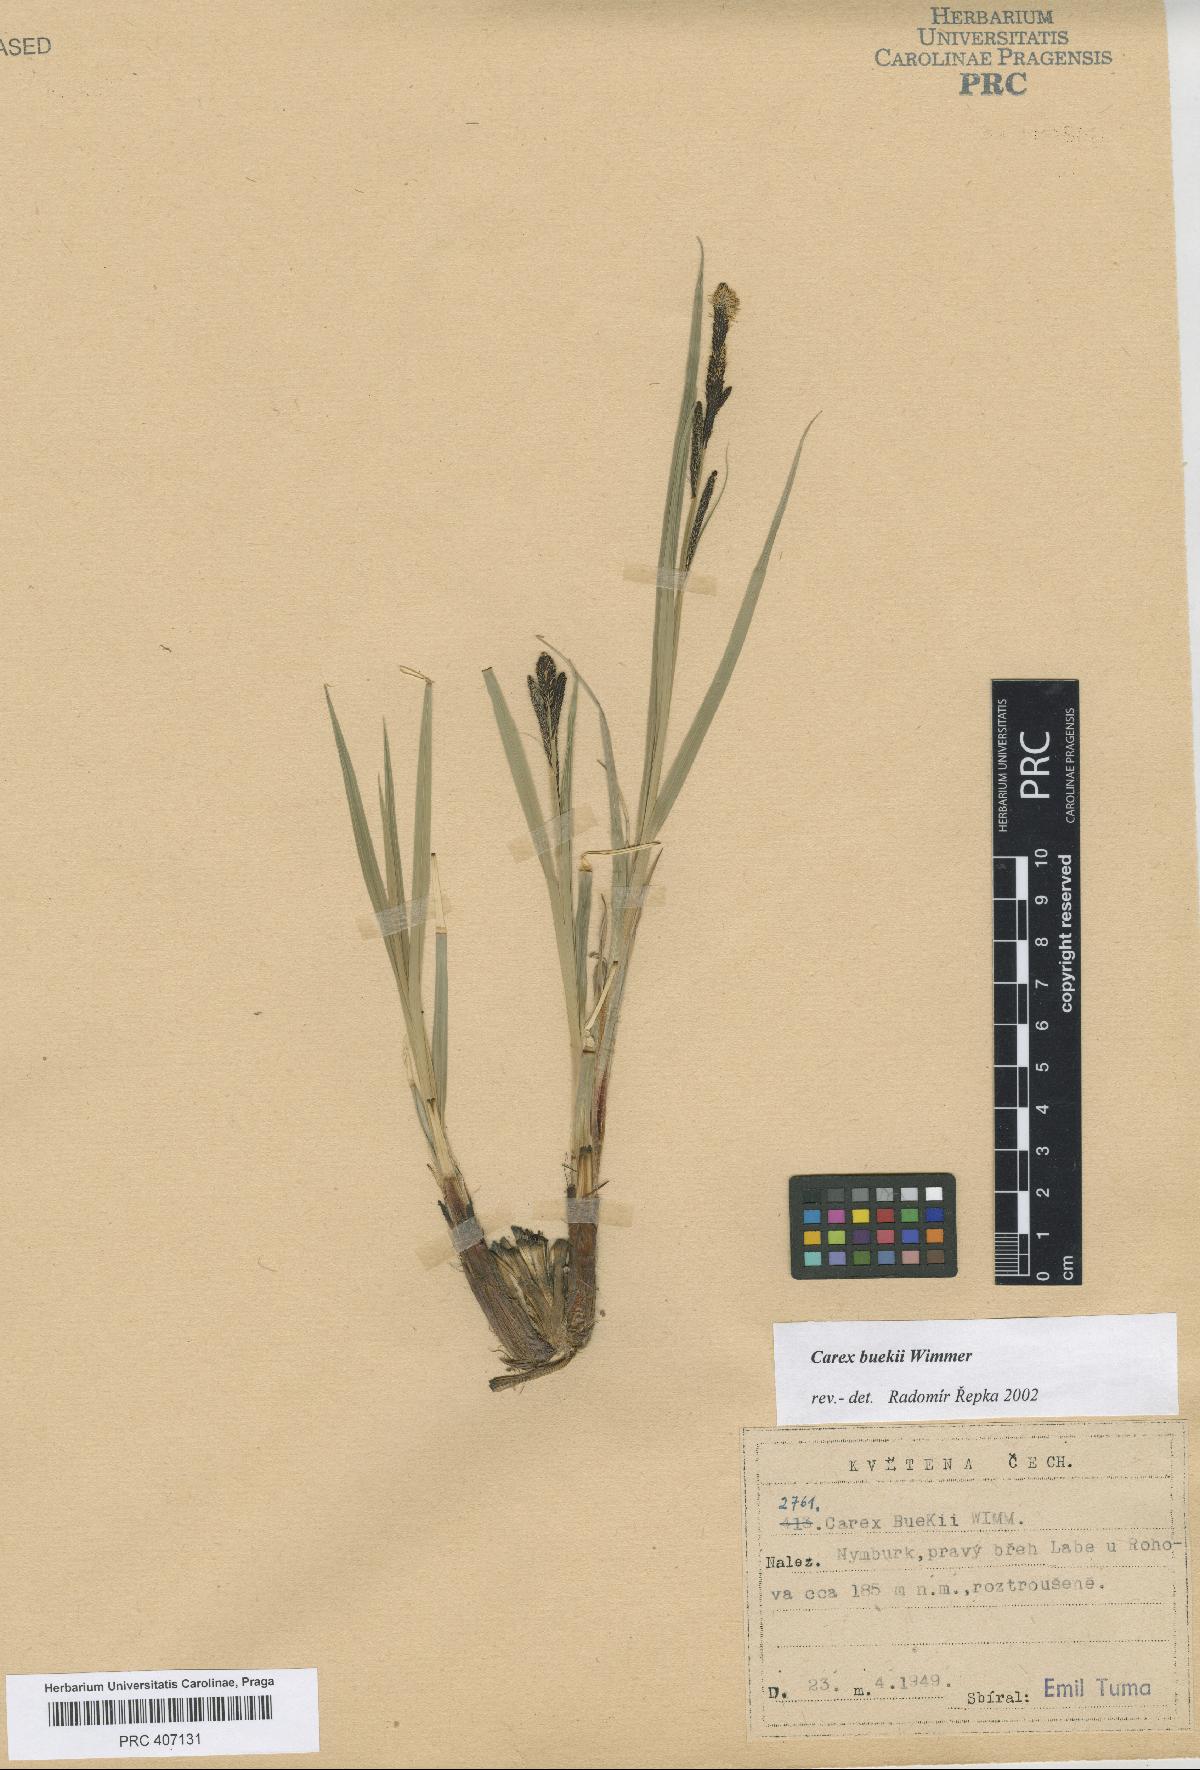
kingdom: Plantae
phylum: Tracheophyta
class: Liliopsida
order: Poales
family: Cyperaceae
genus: Carex
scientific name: Carex buekii
